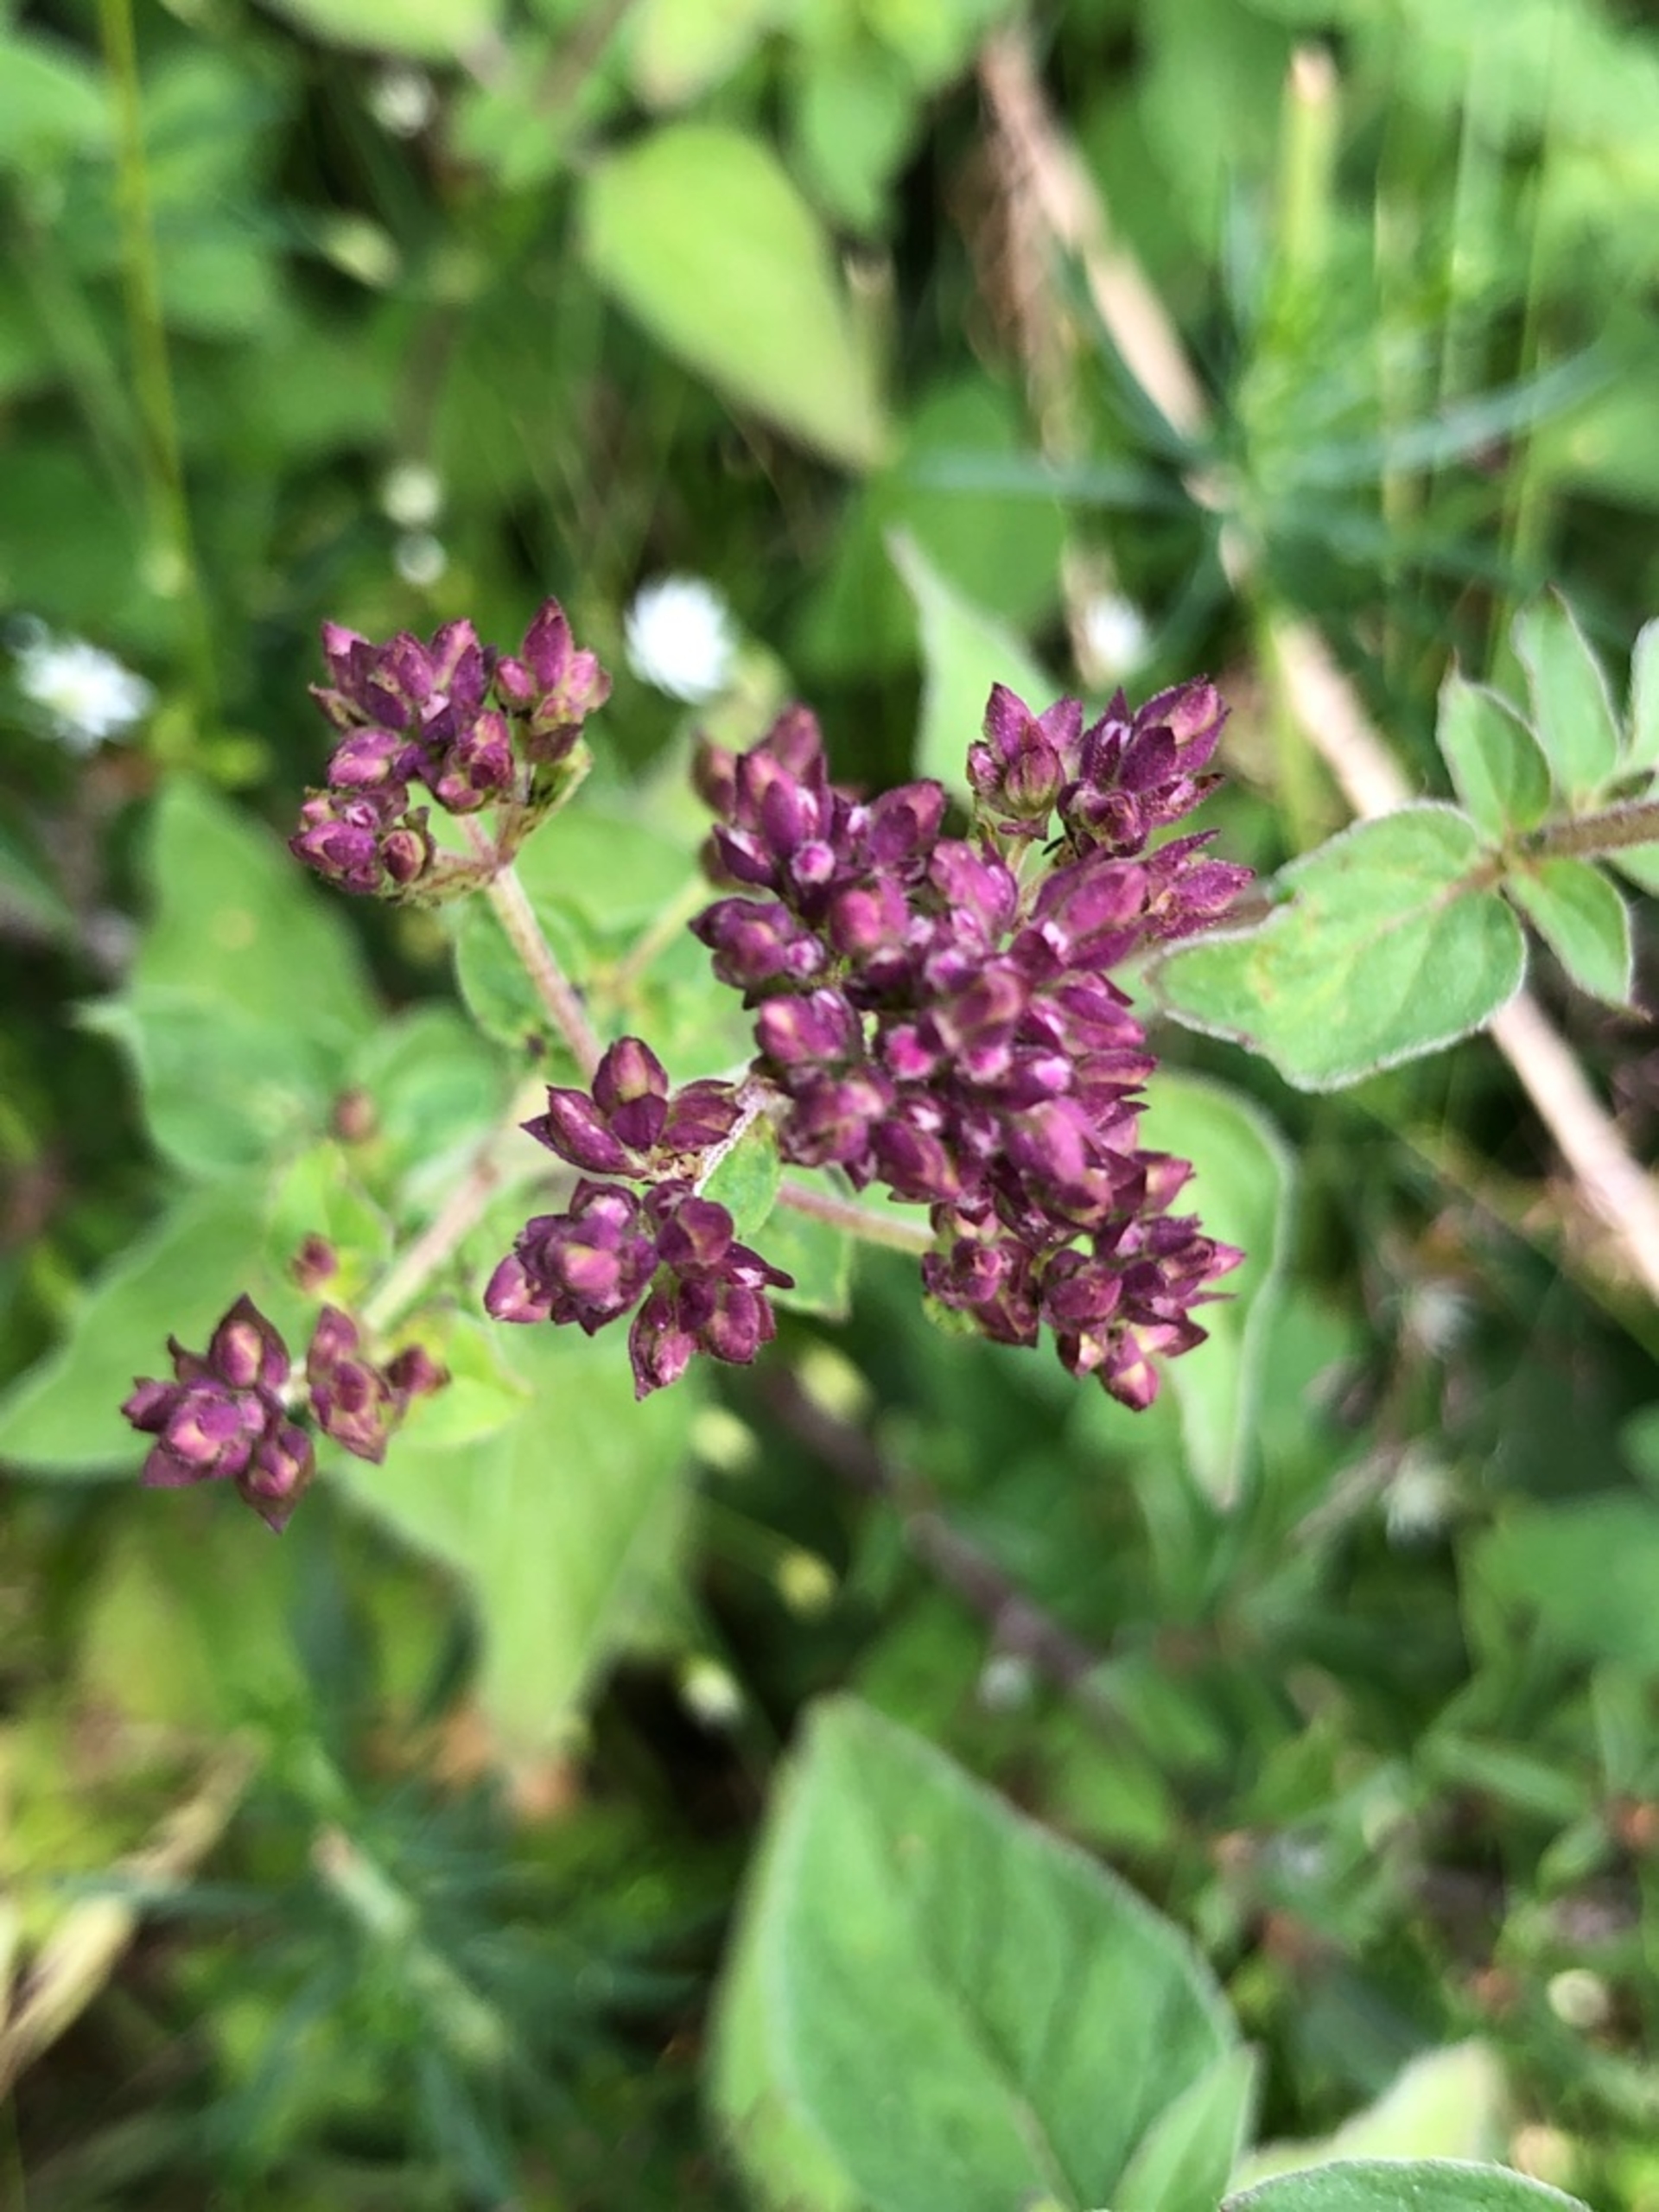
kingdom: Plantae
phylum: Tracheophyta
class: Magnoliopsida
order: Lamiales
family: Lamiaceae
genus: Origanum
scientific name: Origanum vulgare
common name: Merian
